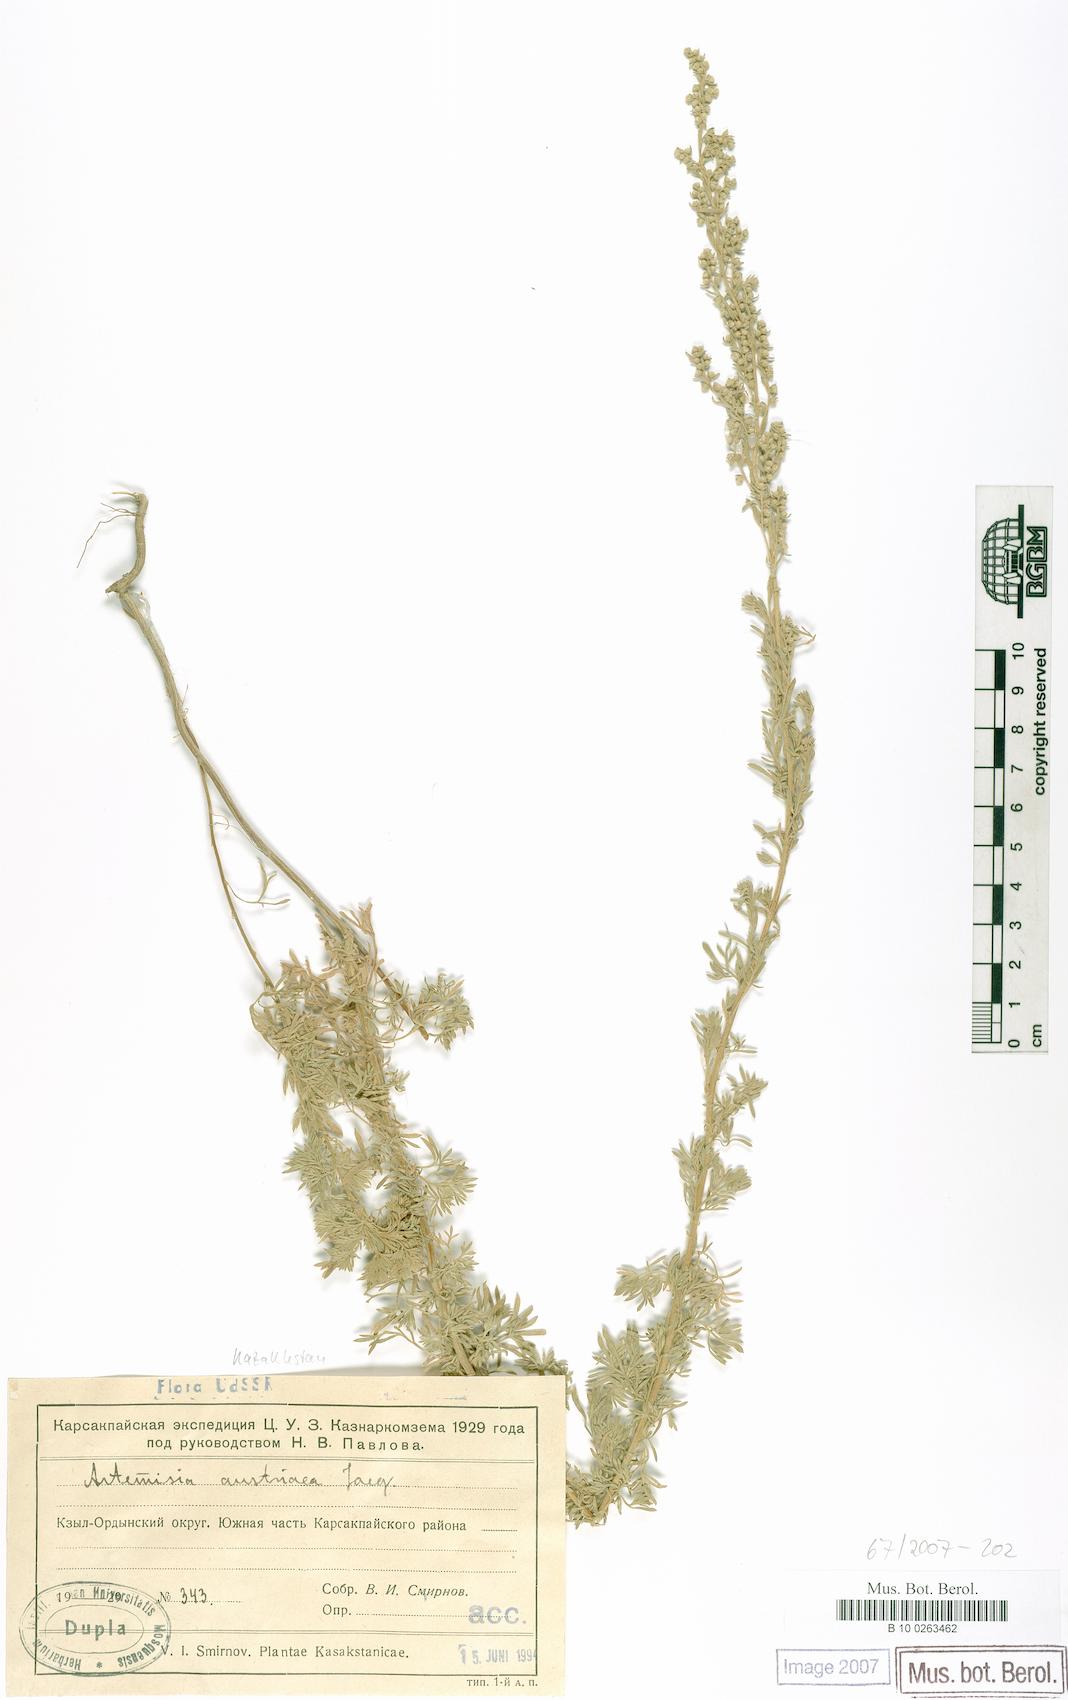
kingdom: Plantae
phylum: Tracheophyta
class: Magnoliopsida
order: Asterales
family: Asteraceae
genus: Artemisia
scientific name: Artemisia austriaca
